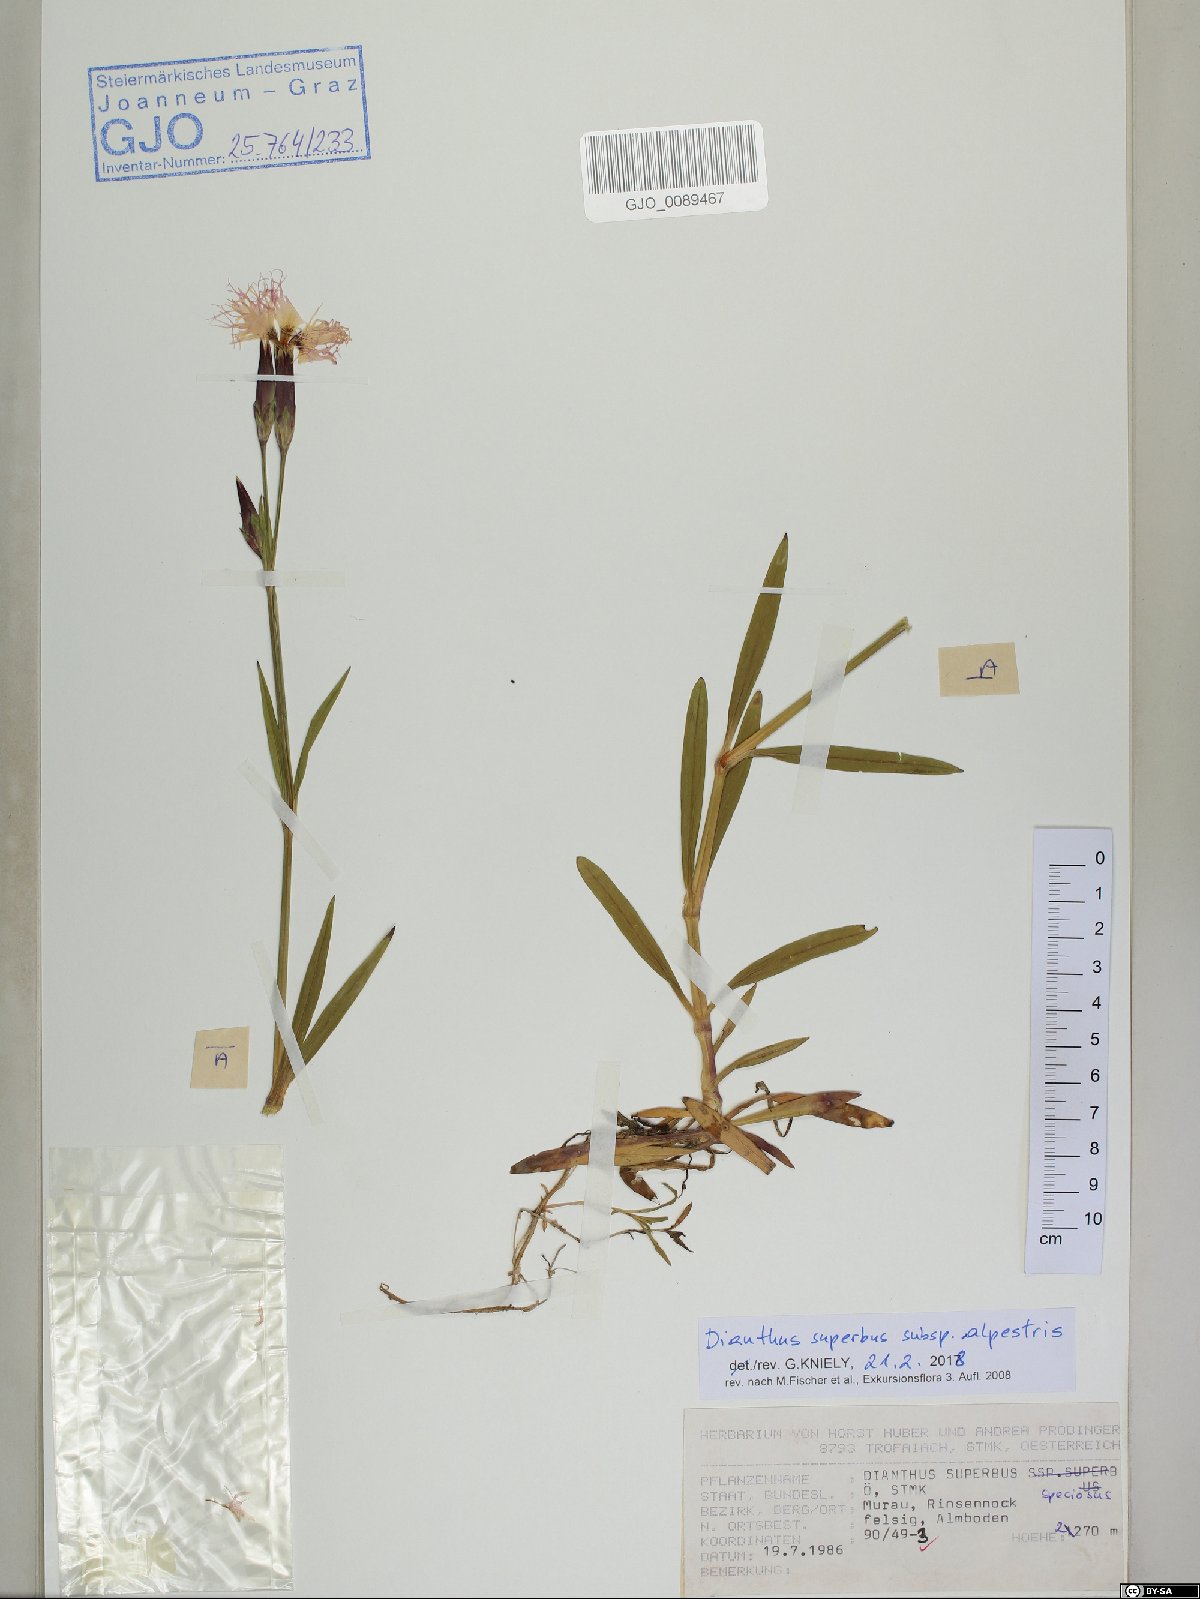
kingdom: Plantae
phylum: Tracheophyta
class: Magnoliopsida
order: Caryophyllales
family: Caryophyllaceae
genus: Dianthus
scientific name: Dianthus superbus
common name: Fringed pink
